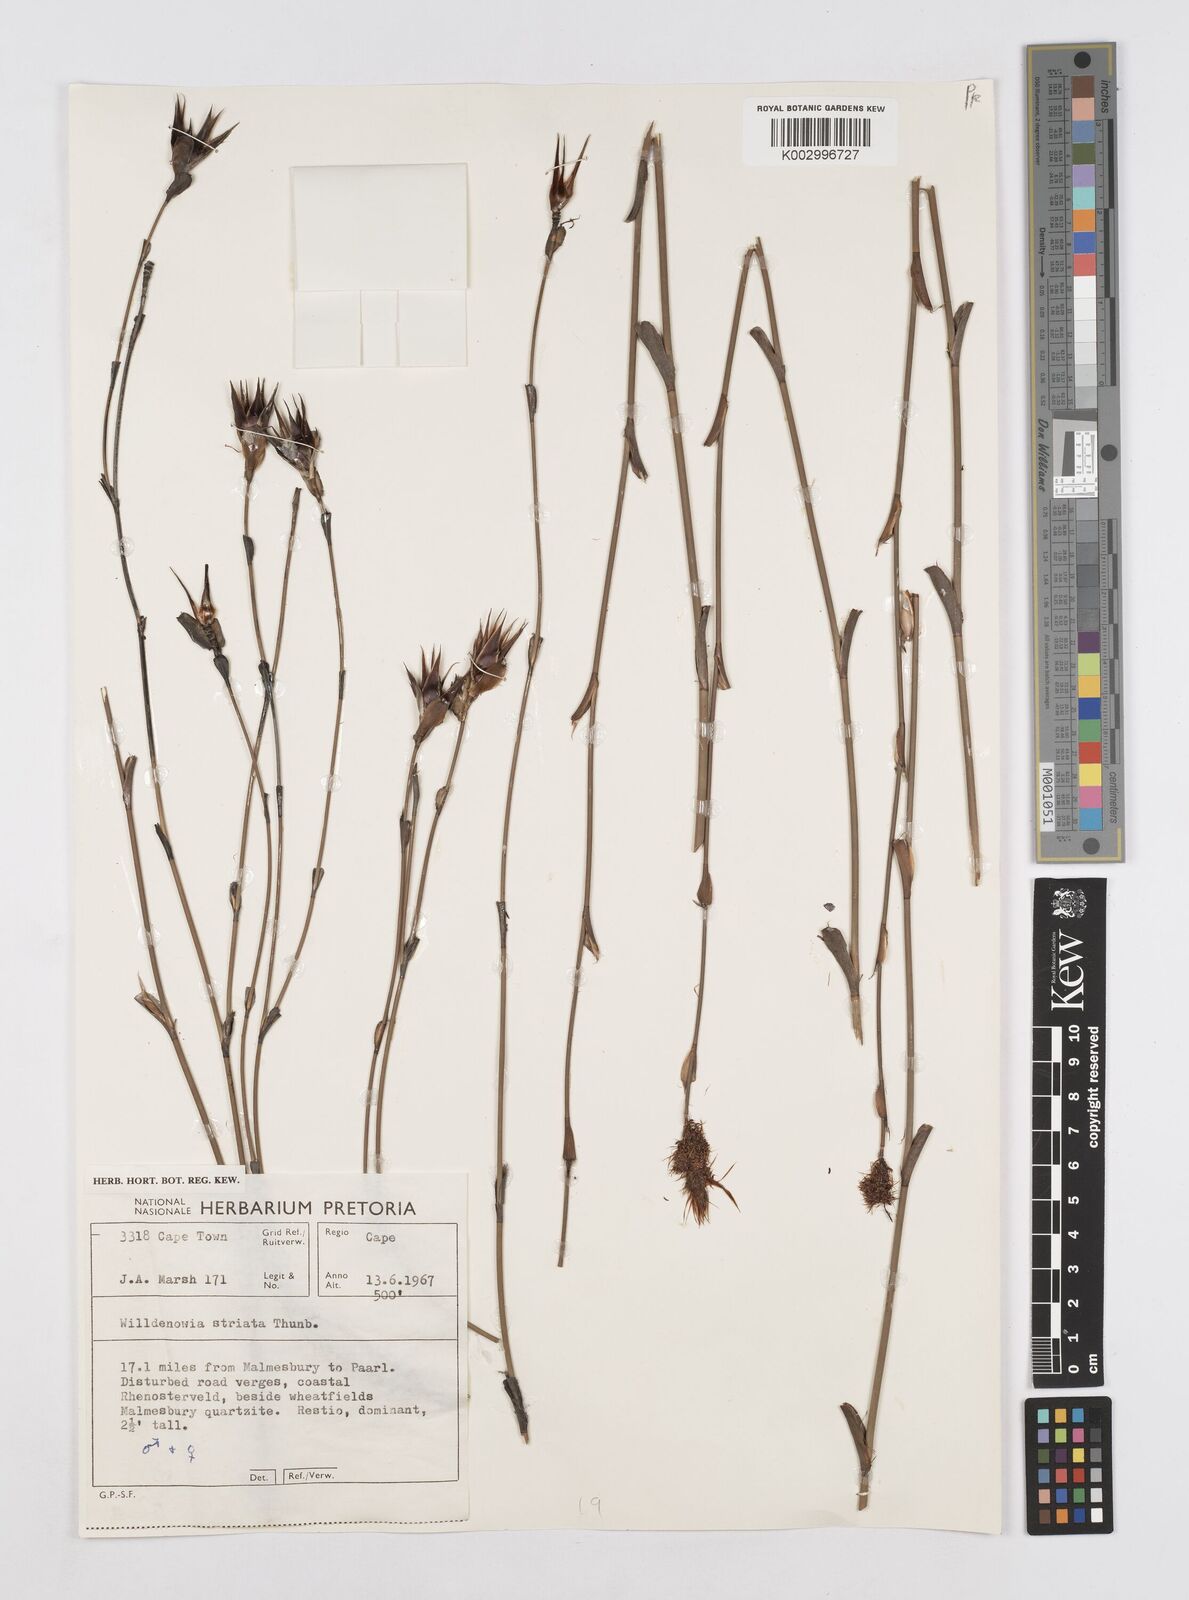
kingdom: Plantae
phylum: Tracheophyta
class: Liliopsida
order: Poales
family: Restionaceae
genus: Willdenowia
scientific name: Willdenowia incurvata
